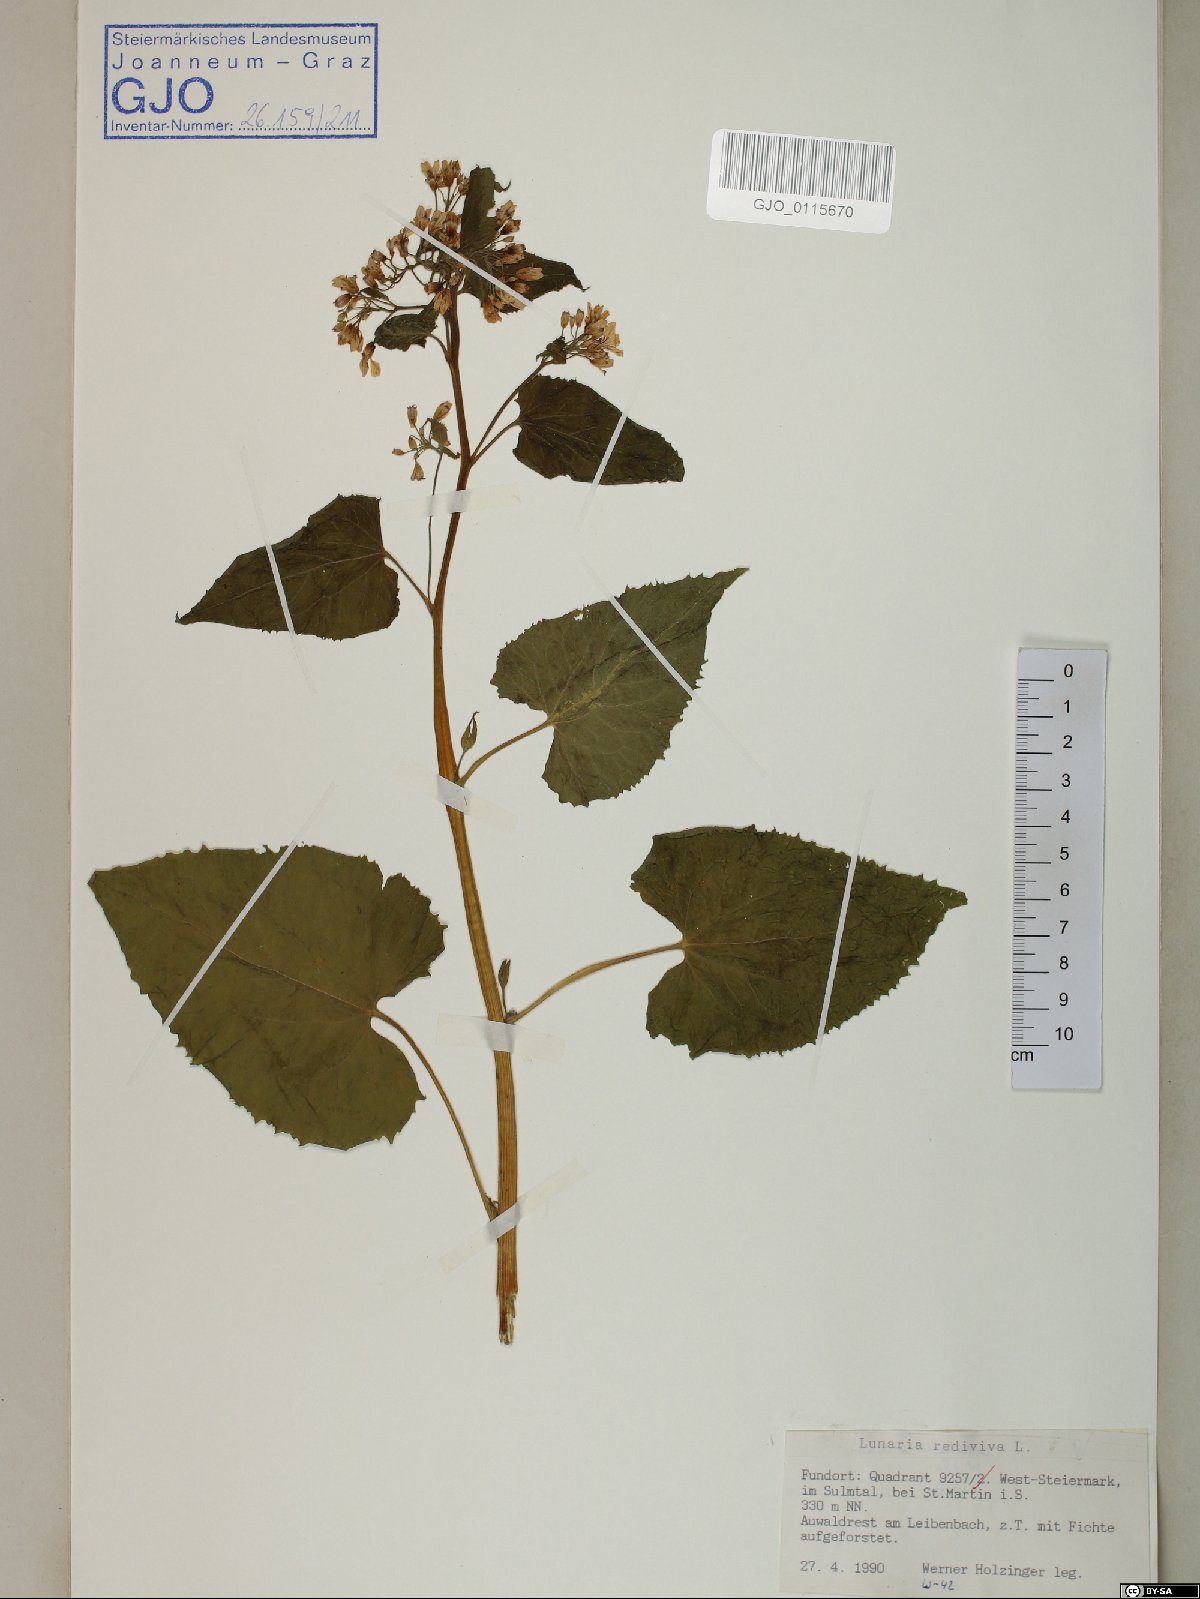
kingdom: Plantae
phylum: Tracheophyta
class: Magnoliopsida
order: Brassicales
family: Brassicaceae
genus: Lunaria
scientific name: Lunaria rediviva
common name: Perennial honesty
